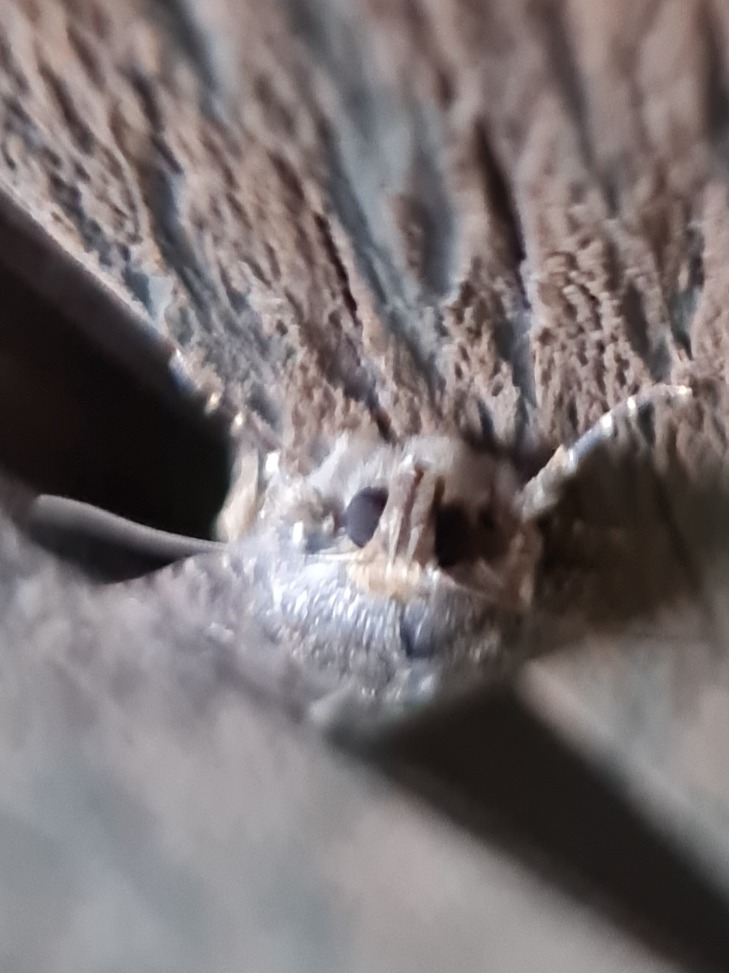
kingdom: Animalia
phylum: Arthropoda
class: Insecta
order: Lepidoptera
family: Noctuidae
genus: Amphipyra
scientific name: Amphipyra pyramidea
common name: Pyramideugle
